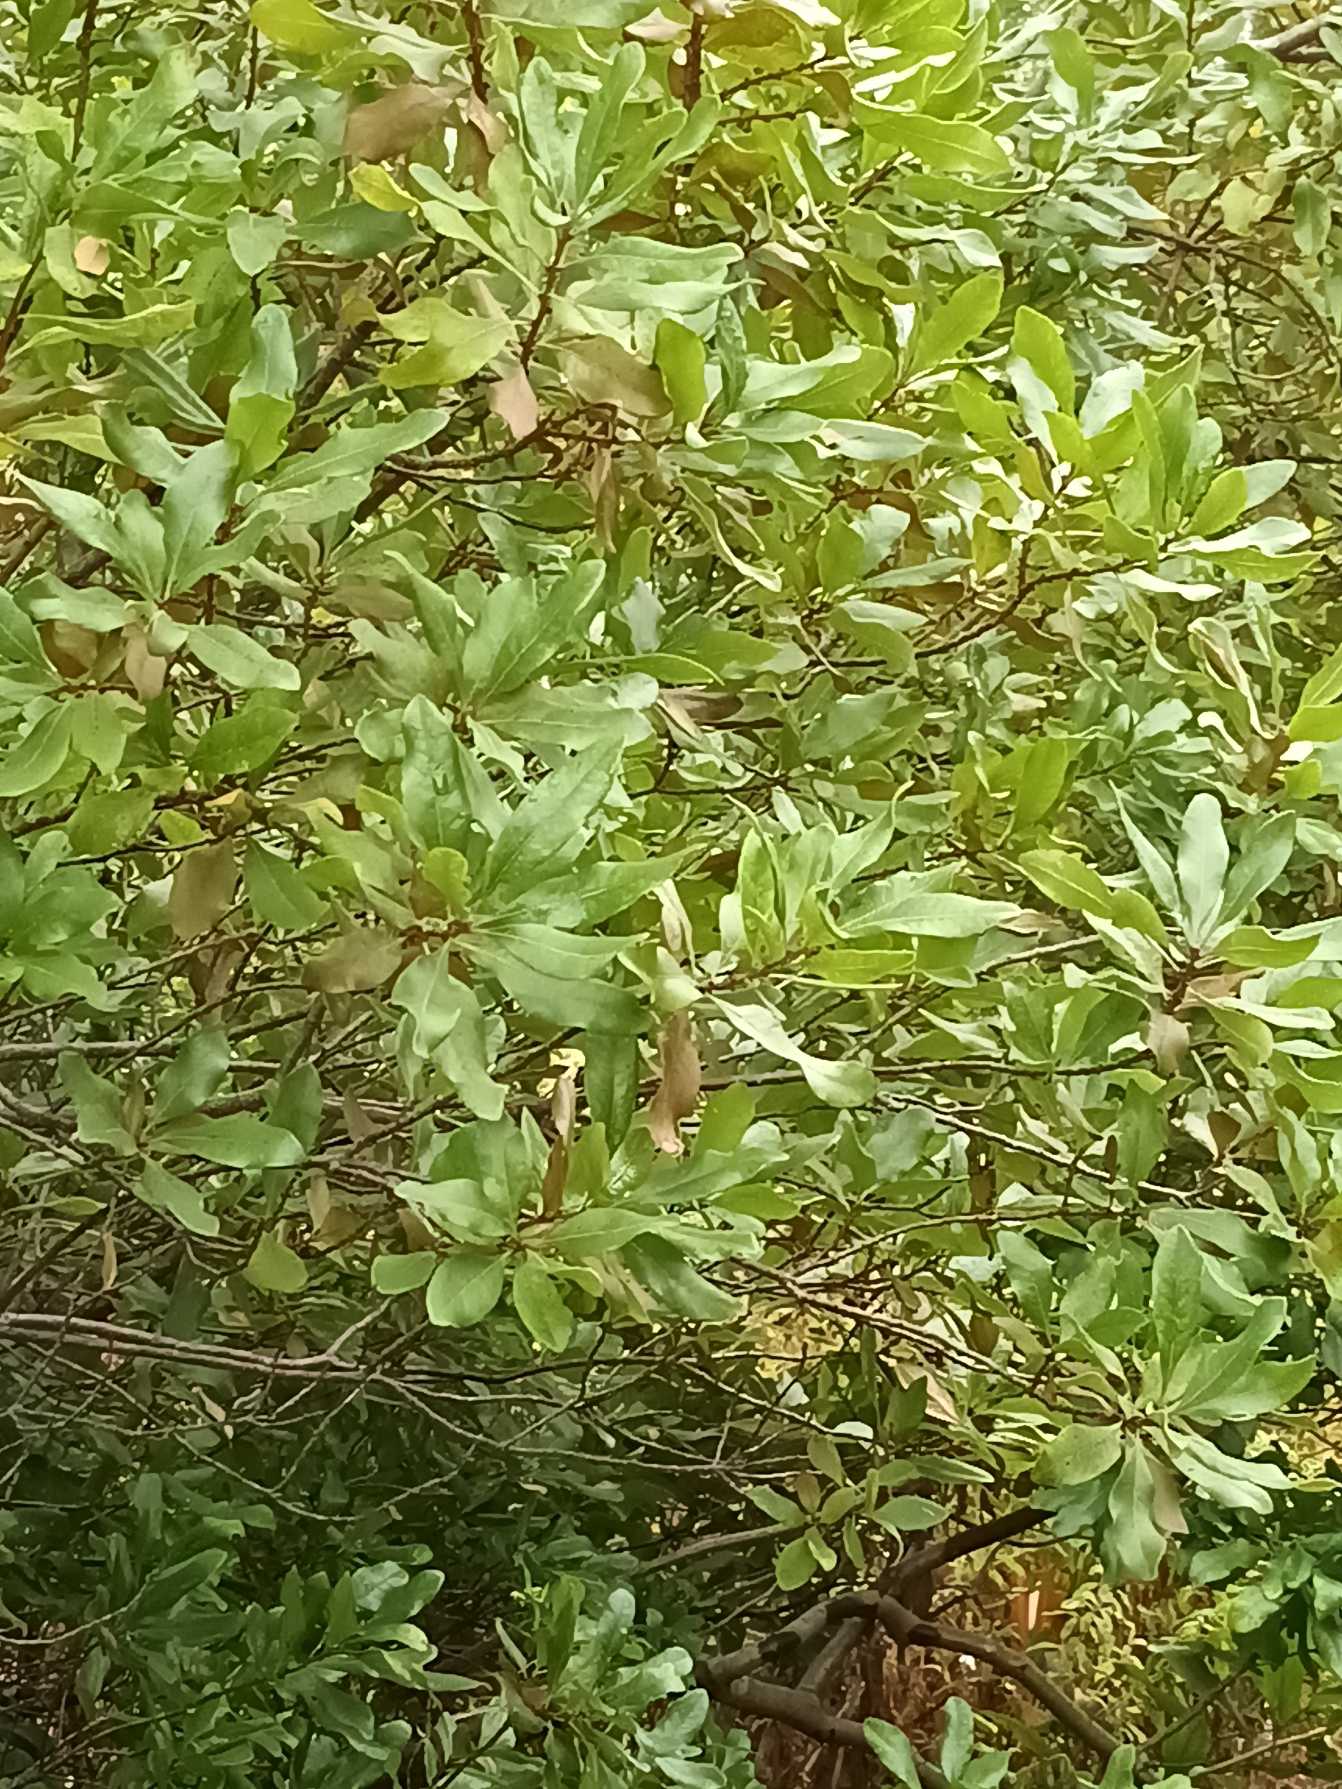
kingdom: Plantae
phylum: Tracheophyta
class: Magnoliopsida
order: Fagales
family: Myricaceae
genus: Myrica
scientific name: Myrica
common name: Porsslægten
